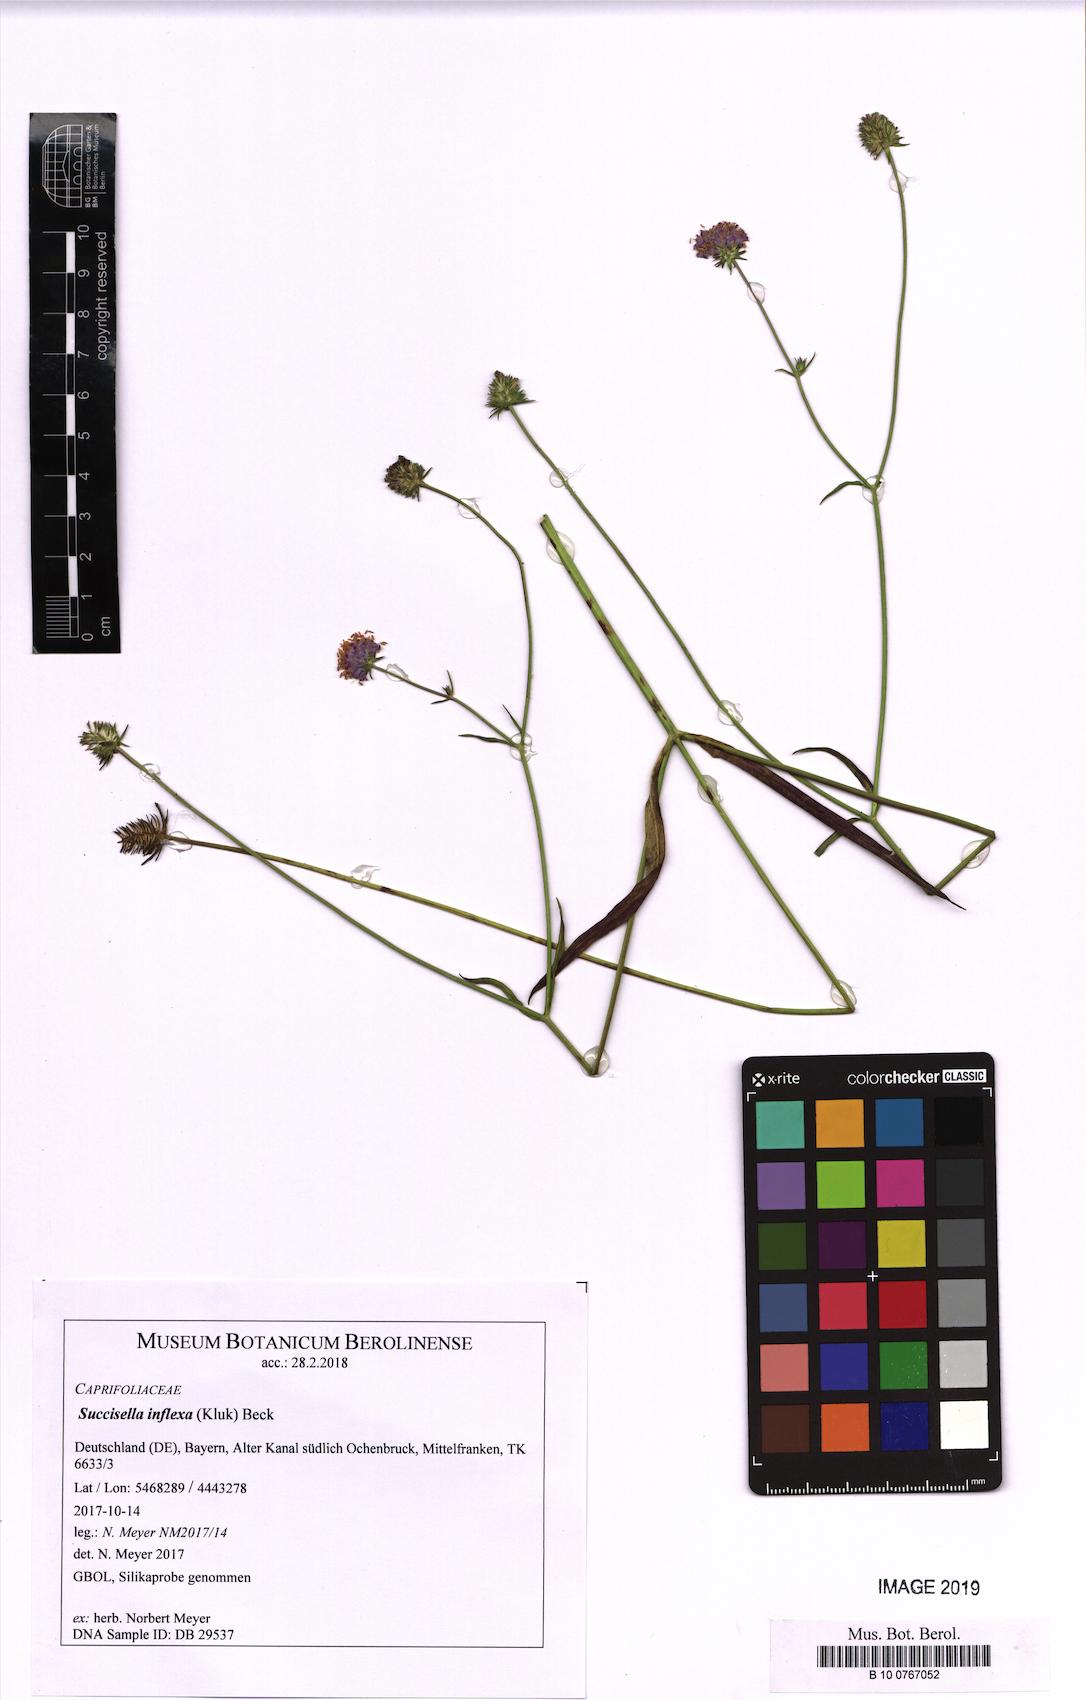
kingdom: Plantae
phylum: Tracheophyta
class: Magnoliopsida
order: Dipsacales
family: Caprifoliaceae
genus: Succisella
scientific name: Succisella inflexa
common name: Southern succisella
